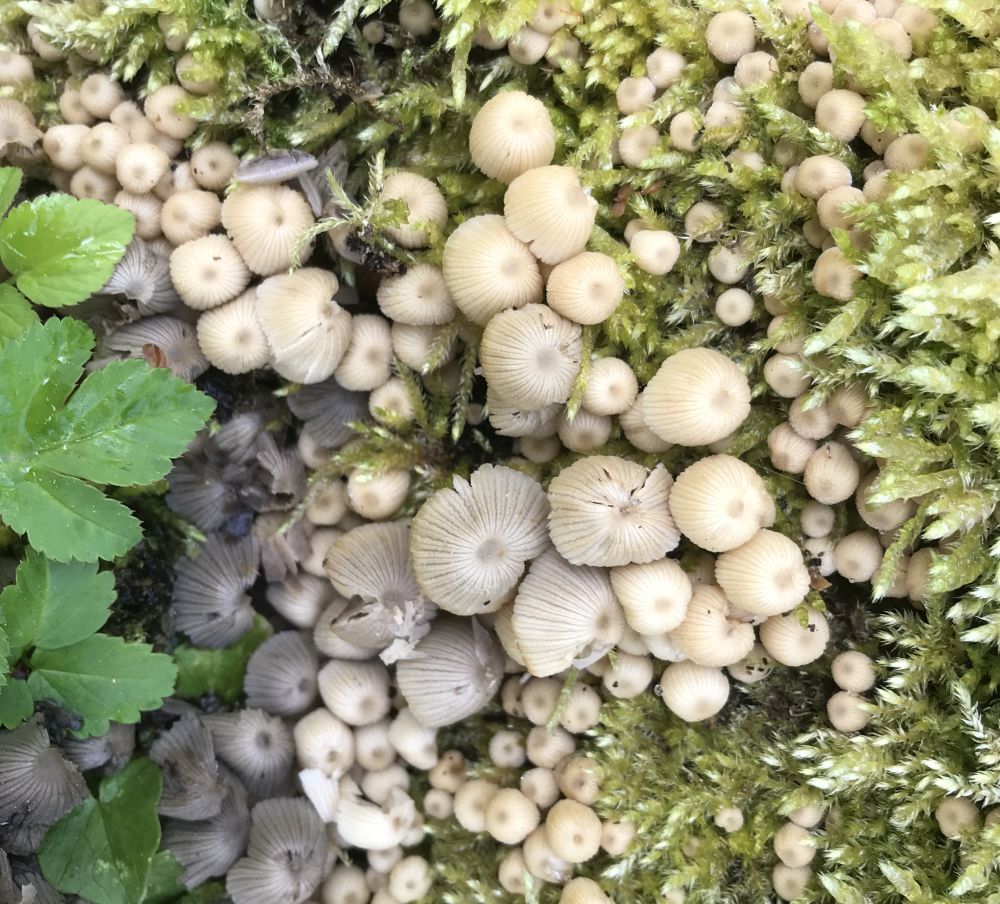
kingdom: Fungi
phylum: Basidiomycota
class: Agaricomycetes
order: Agaricales
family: Psathyrellaceae
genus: Coprinellus
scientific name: Coprinellus disseminatus
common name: bredsået blækhat
